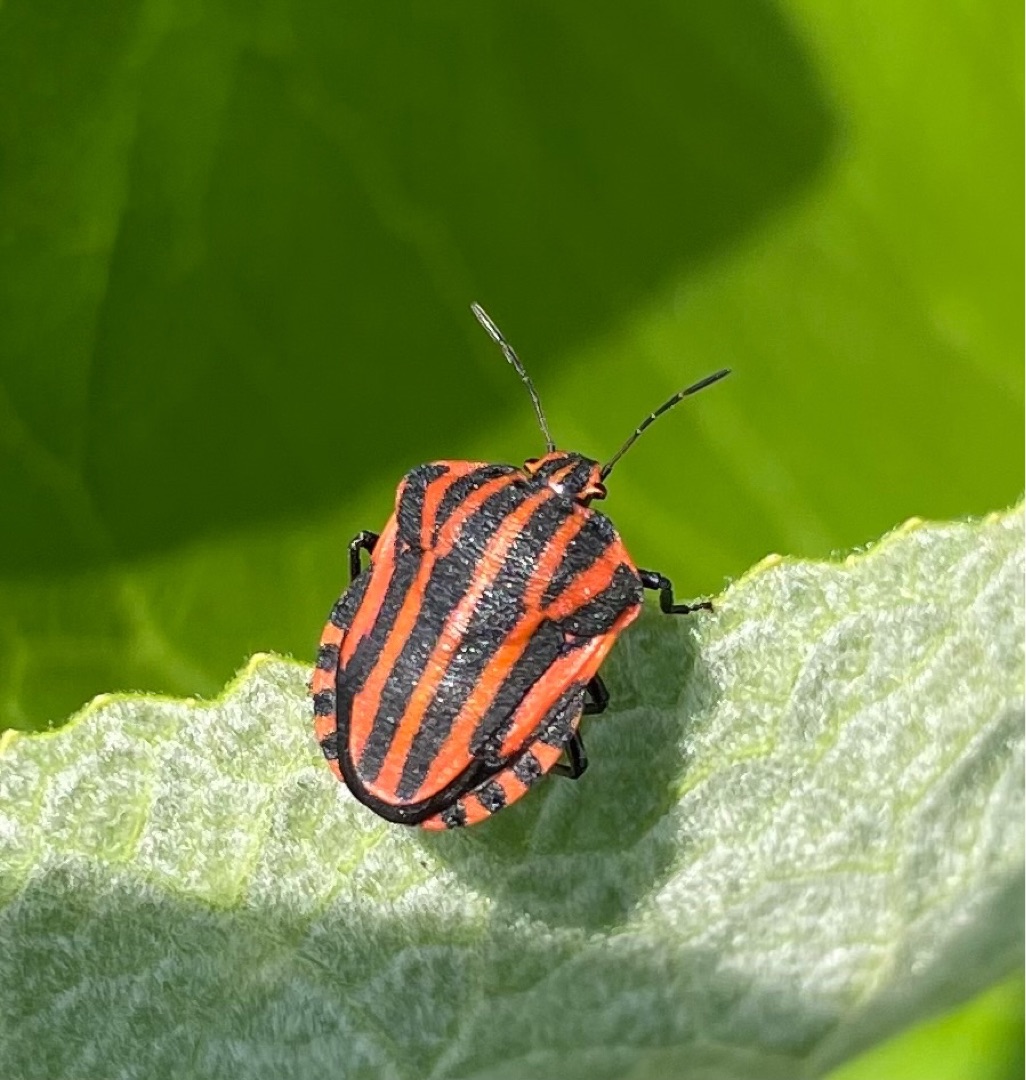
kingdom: Animalia
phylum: Arthropoda
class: Insecta
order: Hemiptera
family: Pentatomidae
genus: Graphosoma
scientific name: Graphosoma italicum
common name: Stribetæge
